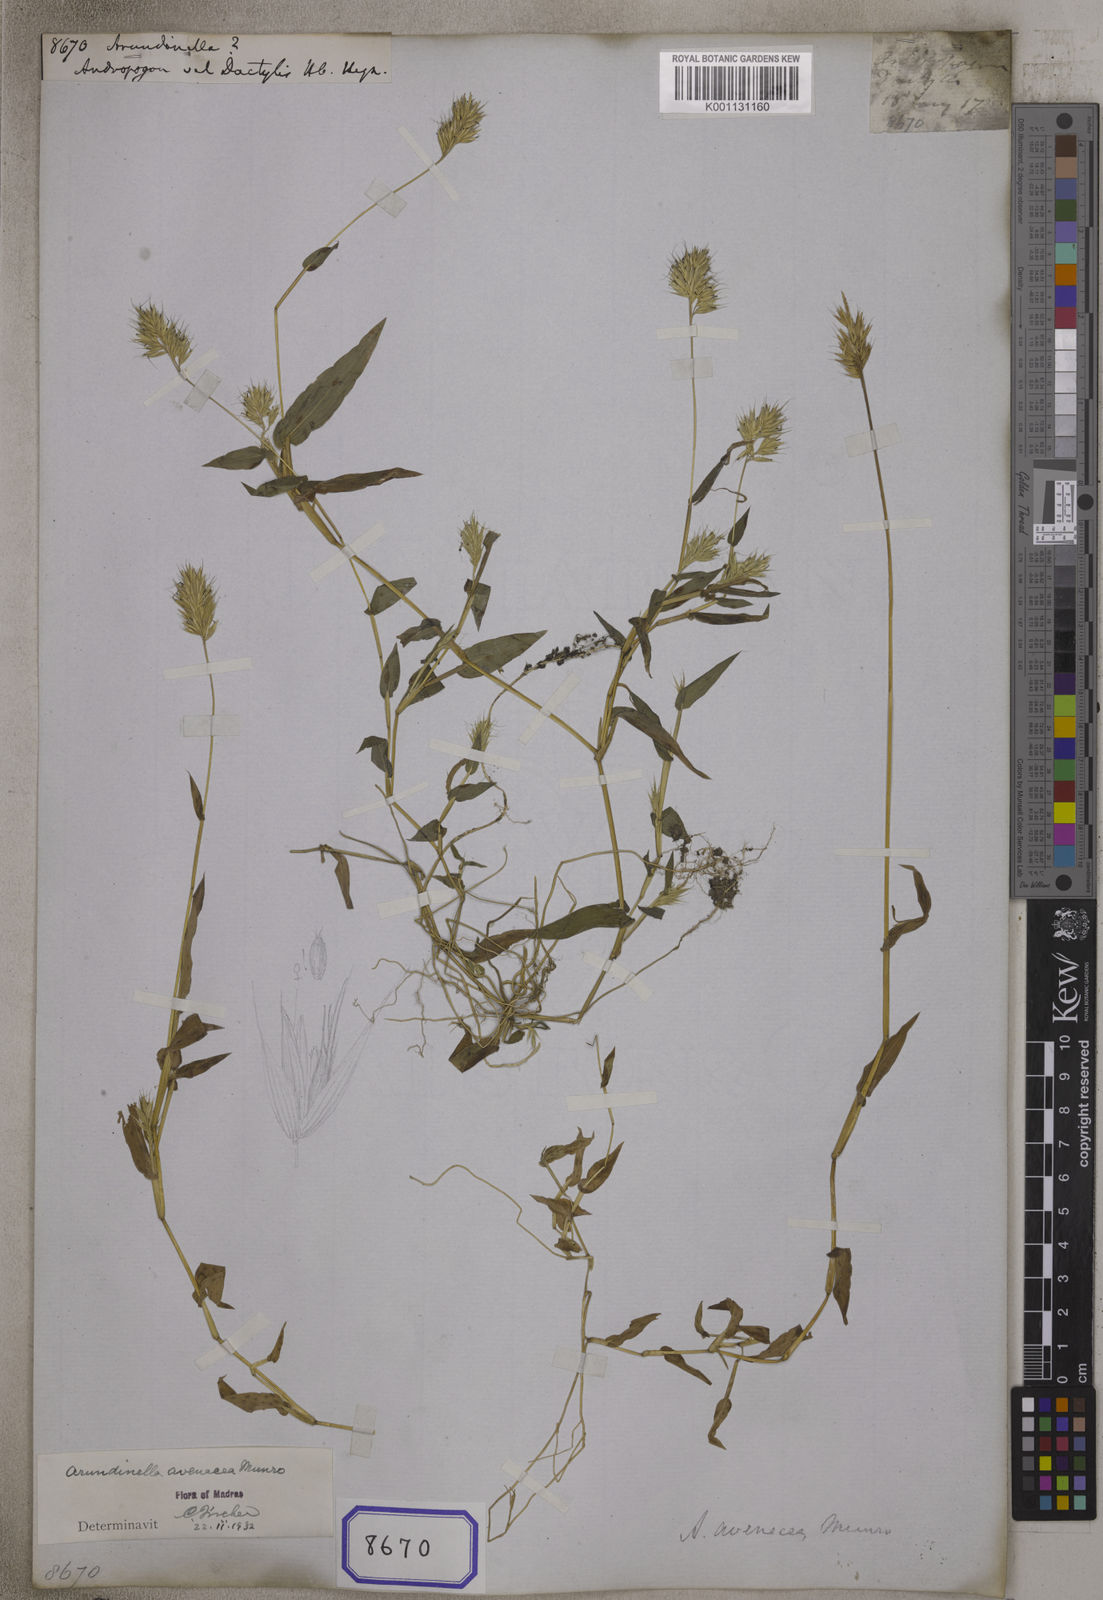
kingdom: Plantae
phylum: Tracheophyta
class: Liliopsida
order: Poales
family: Poaceae
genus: Arundinella
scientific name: Arundinella
